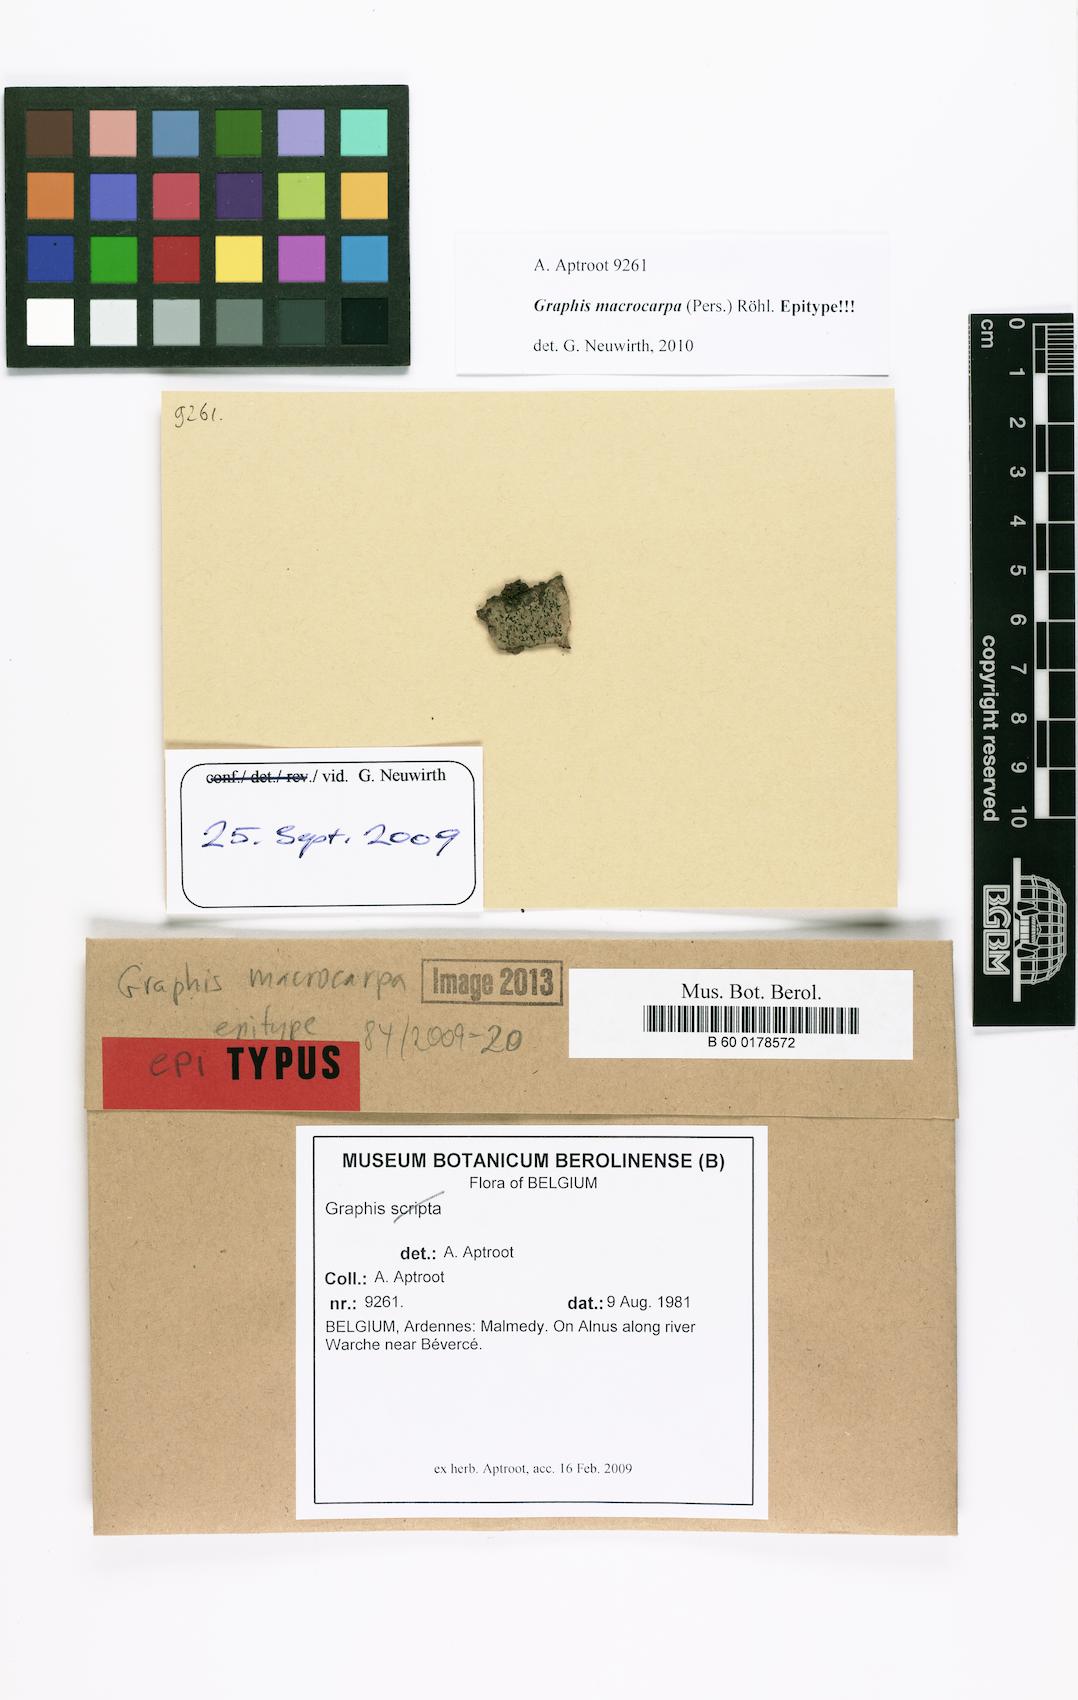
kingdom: Fungi
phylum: Ascomycota
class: Lecanoromycetes
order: Ostropales
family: Graphidaceae
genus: Graphis
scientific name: Graphis scripta
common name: Script lichen
